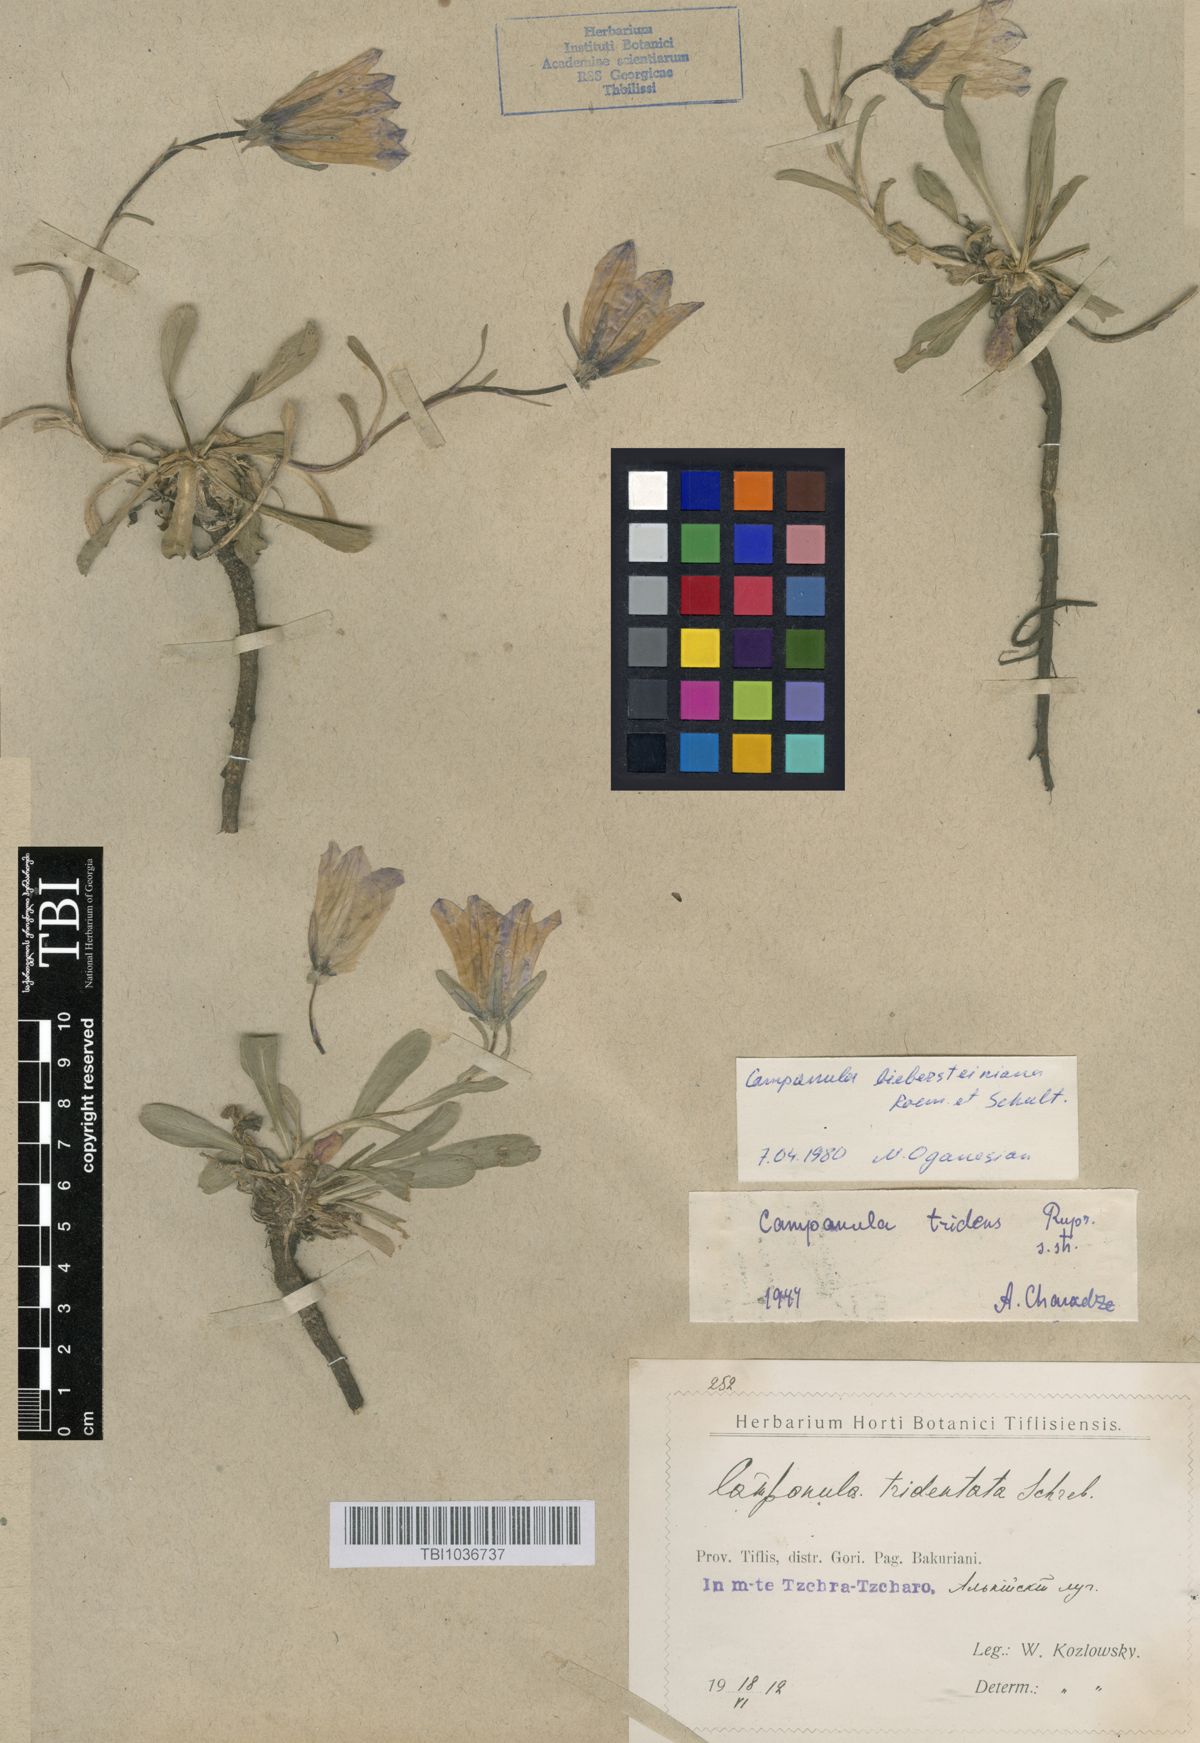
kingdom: Plantae
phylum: Tracheophyta
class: Magnoliopsida
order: Asterales
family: Campanulaceae
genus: Campanula
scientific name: Campanula tridentata
